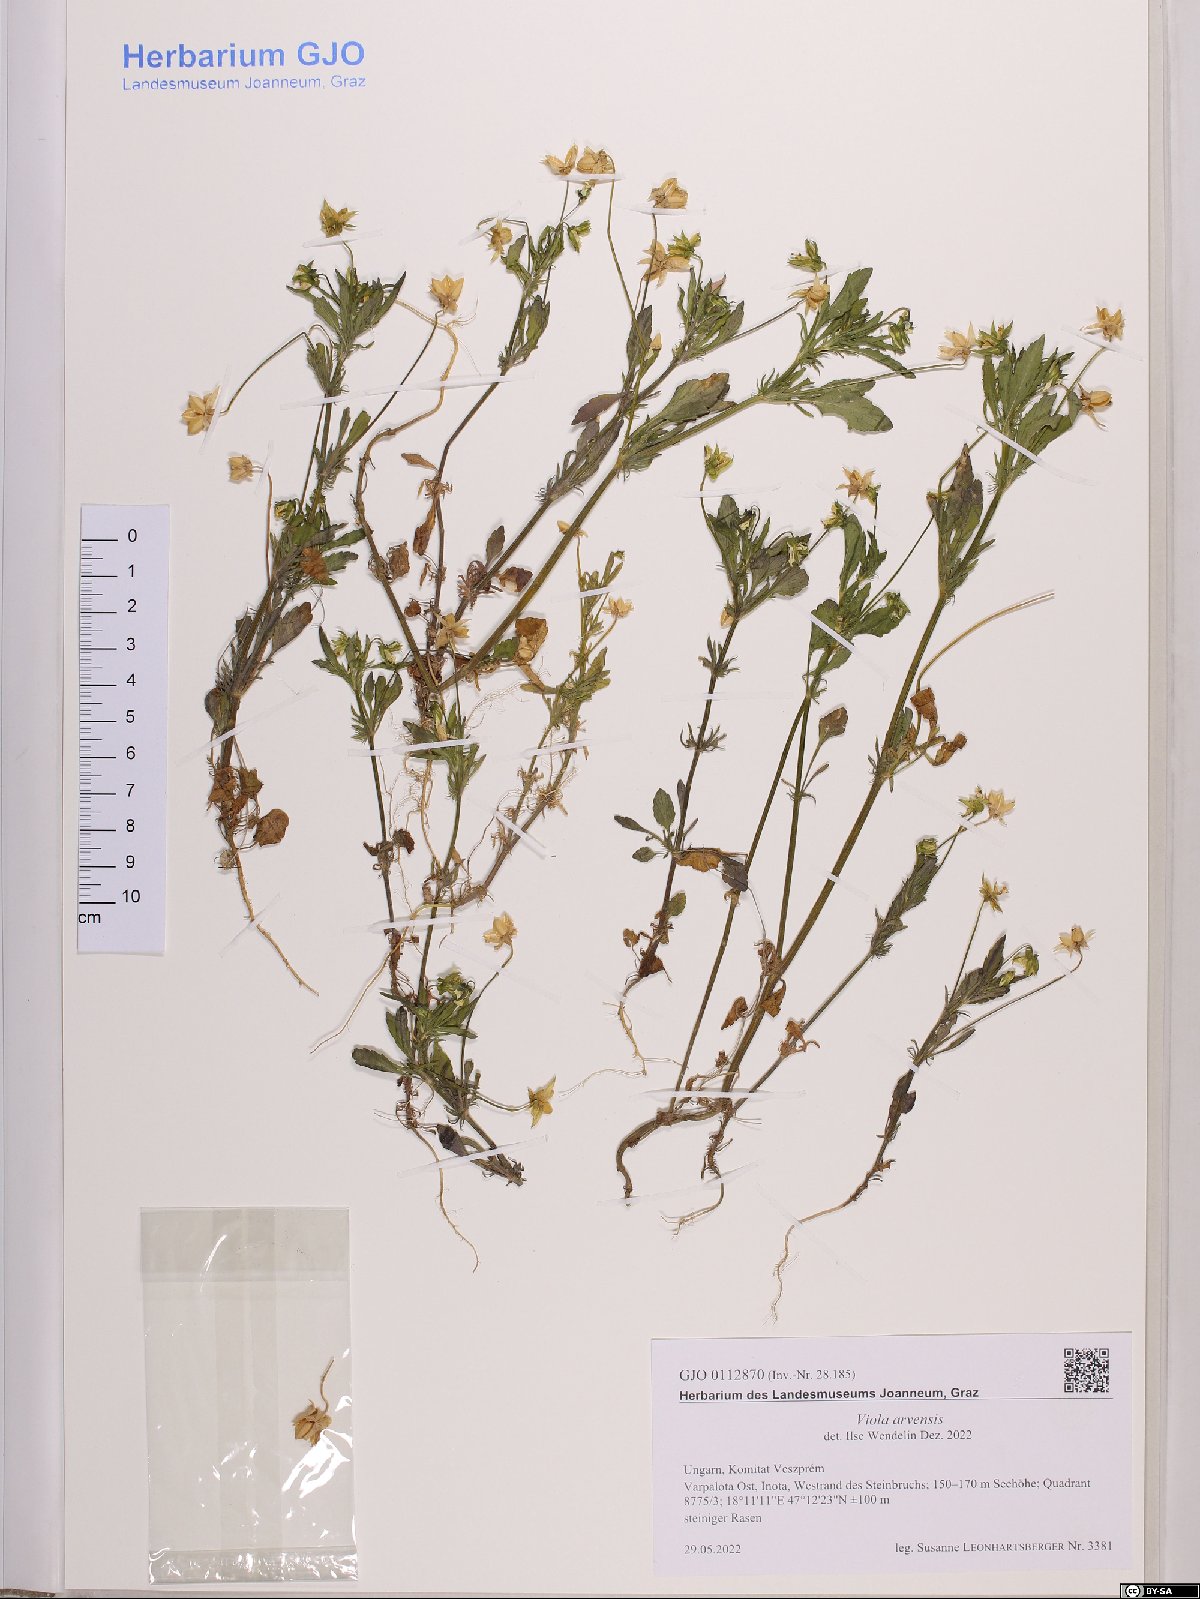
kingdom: Plantae
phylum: Tracheophyta
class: Magnoliopsida
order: Malpighiales
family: Violaceae
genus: Viola
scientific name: Viola arvensis
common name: Field pansy
